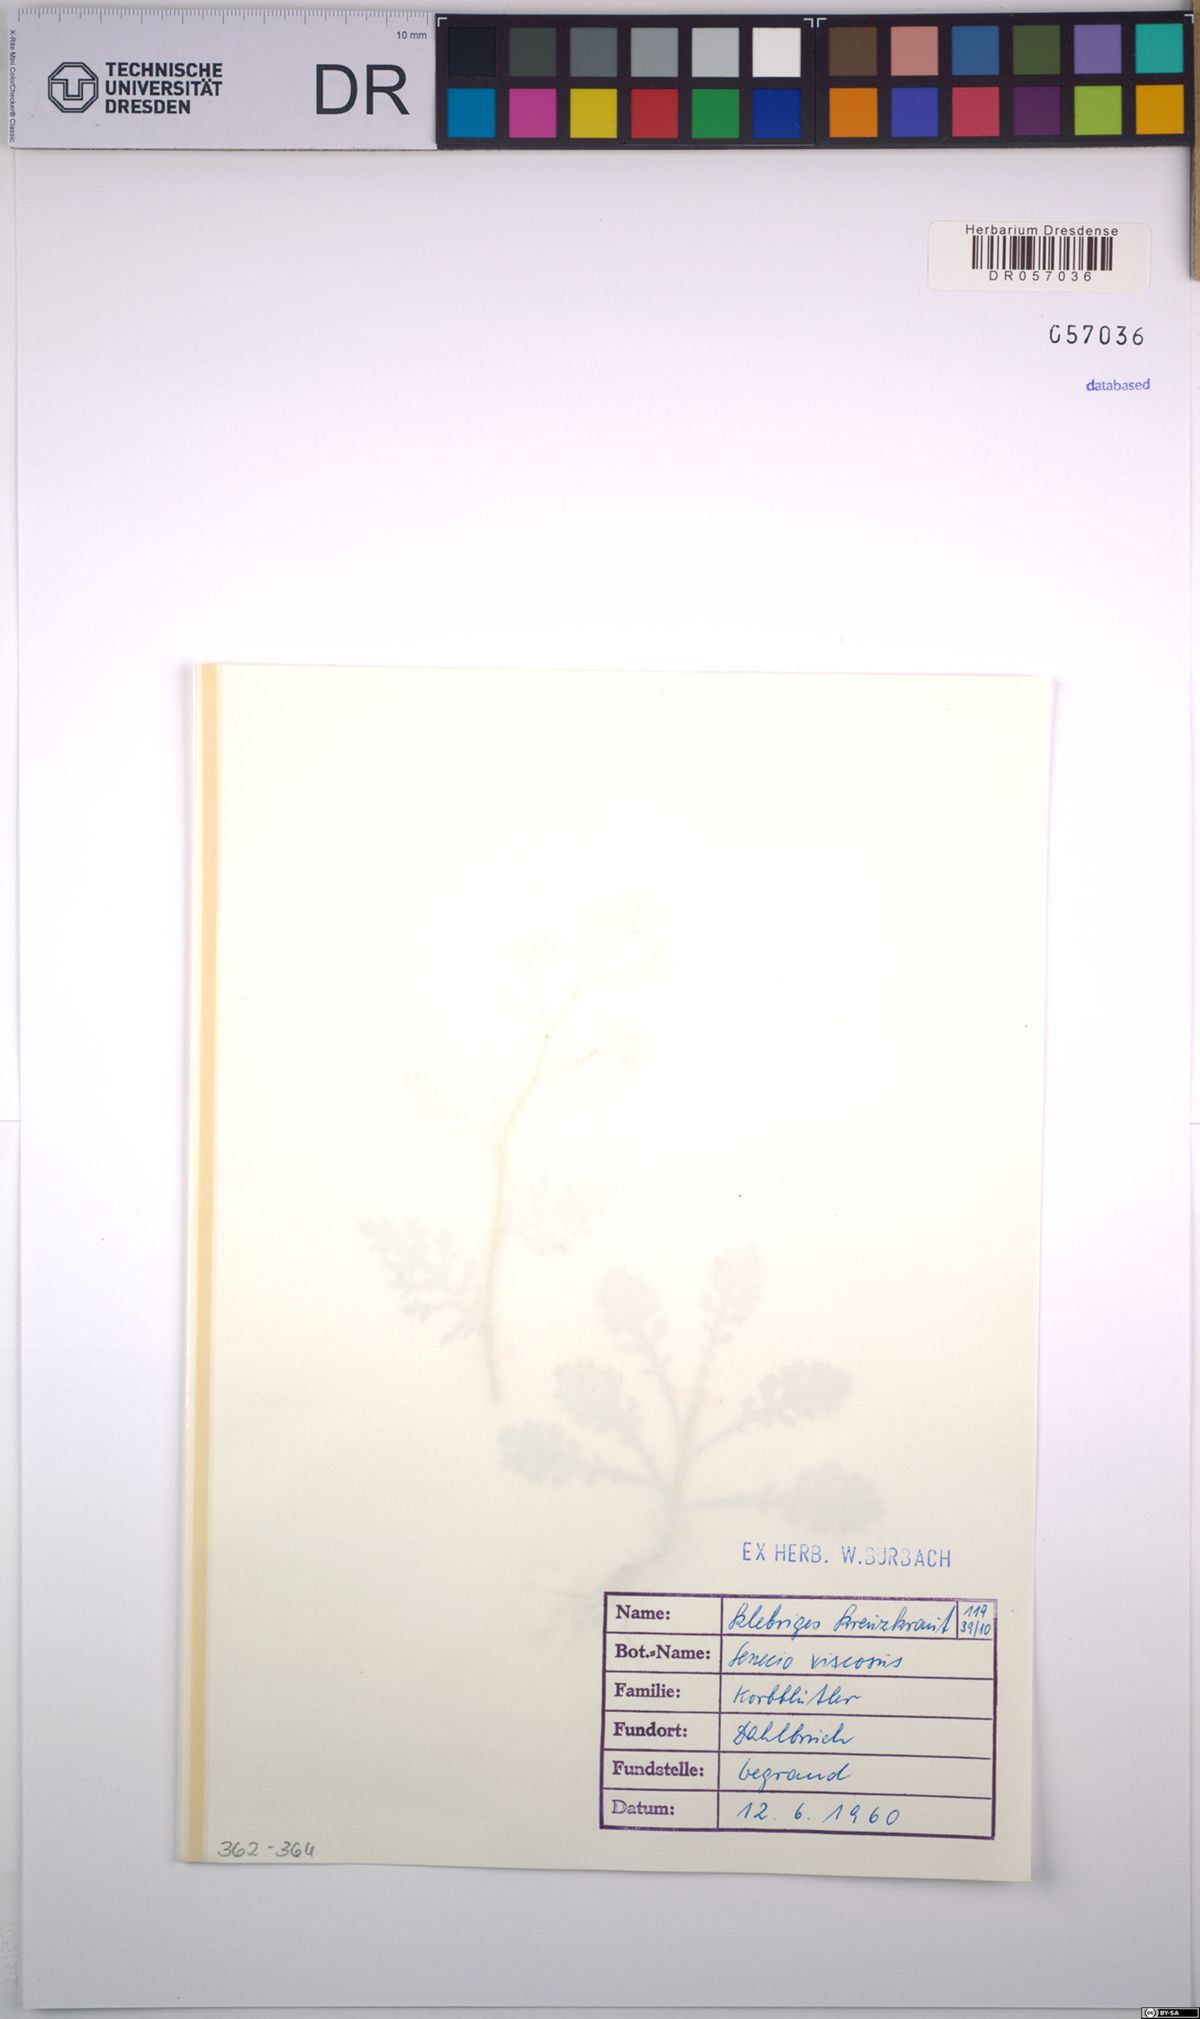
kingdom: Plantae
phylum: Tracheophyta
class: Magnoliopsida
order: Asterales
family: Asteraceae
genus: Senecio
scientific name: Senecio viscosus
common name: Sticky groundsel
